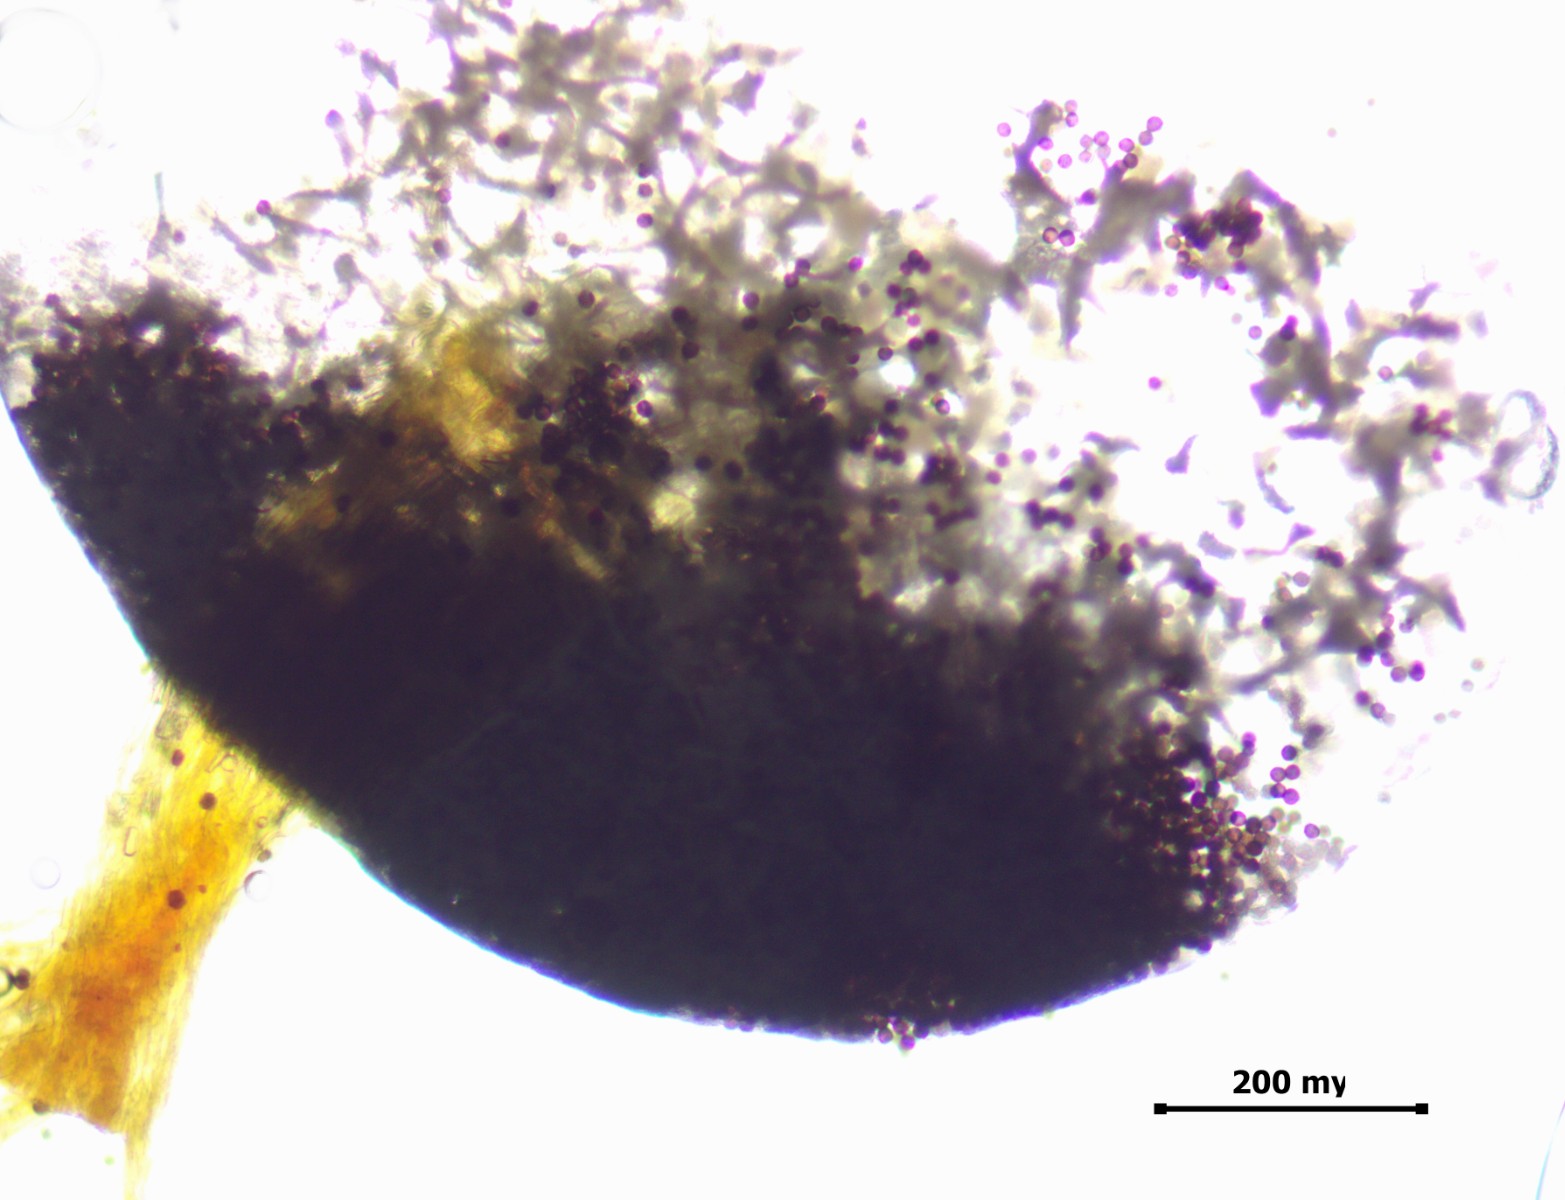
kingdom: Protozoa
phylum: Mycetozoa
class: Myxomycetes
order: Physarales
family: Physaraceae
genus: Badhamia
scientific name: Badhamia melanospora
